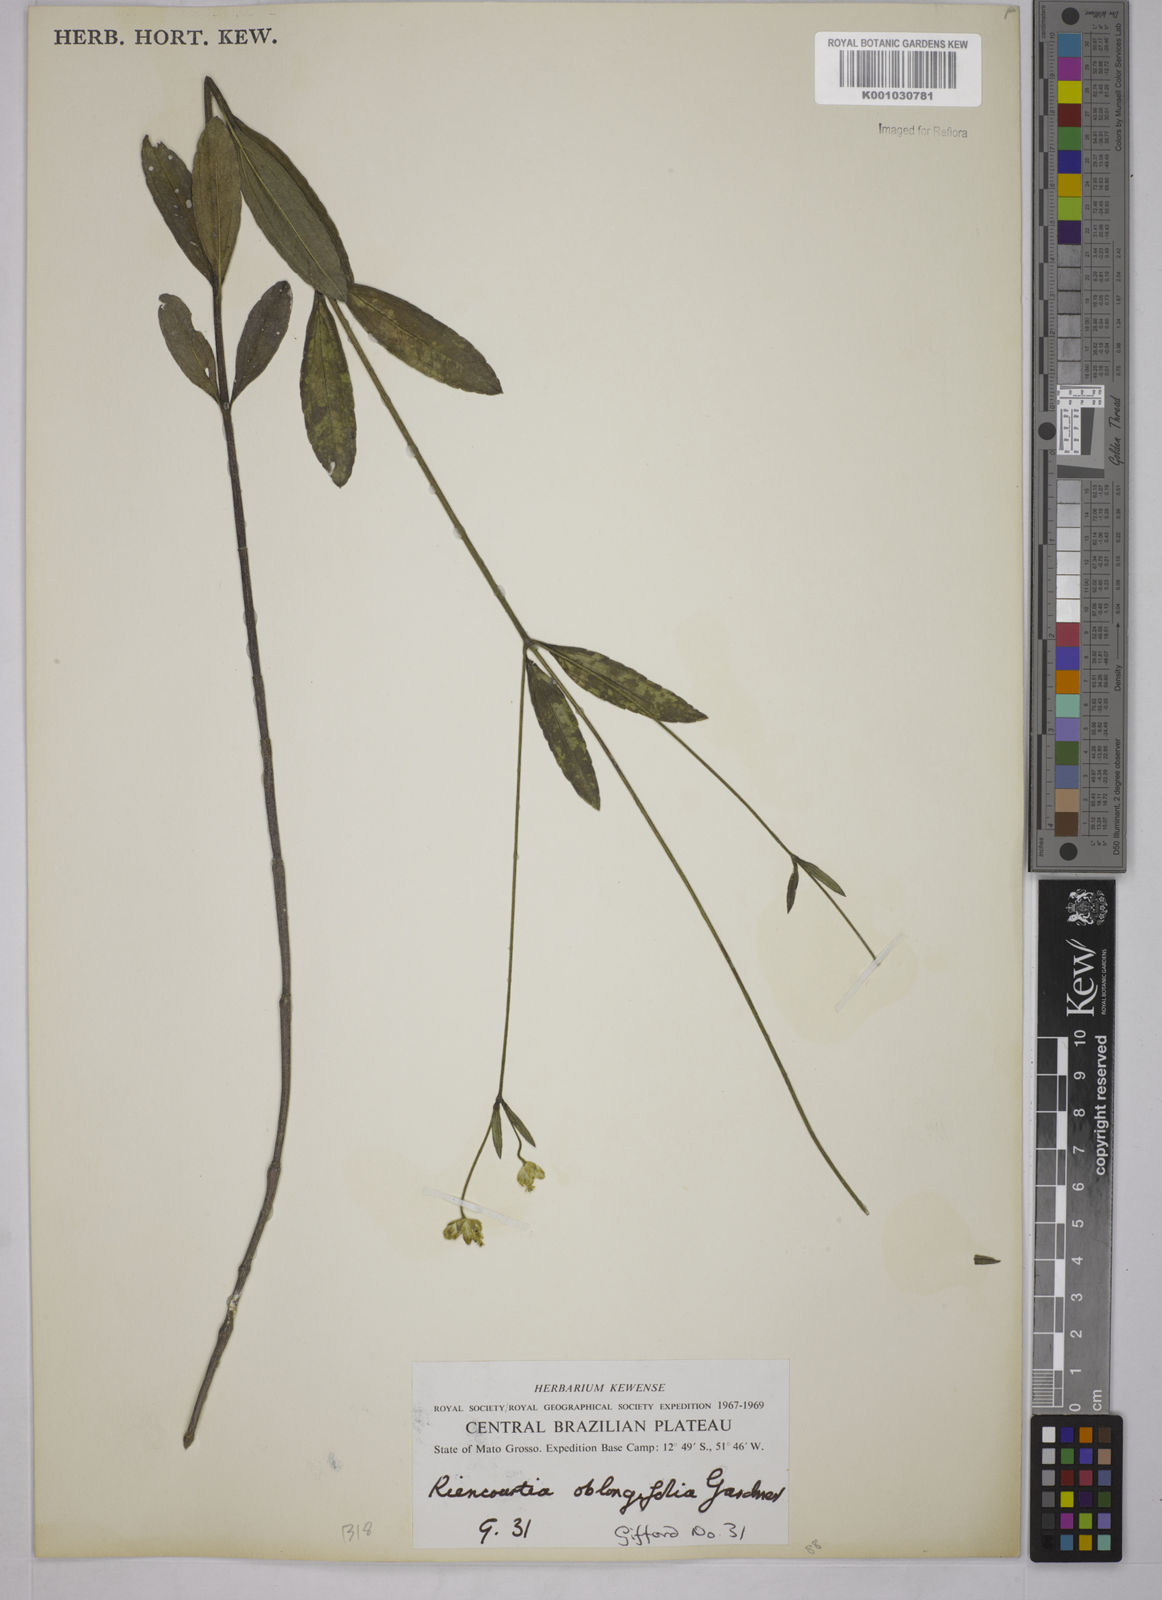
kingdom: Plantae
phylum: Tracheophyta
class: Magnoliopsida
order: Asterales
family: Asteraceae
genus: Riencourtia
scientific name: Riencourtia oblongifolia
